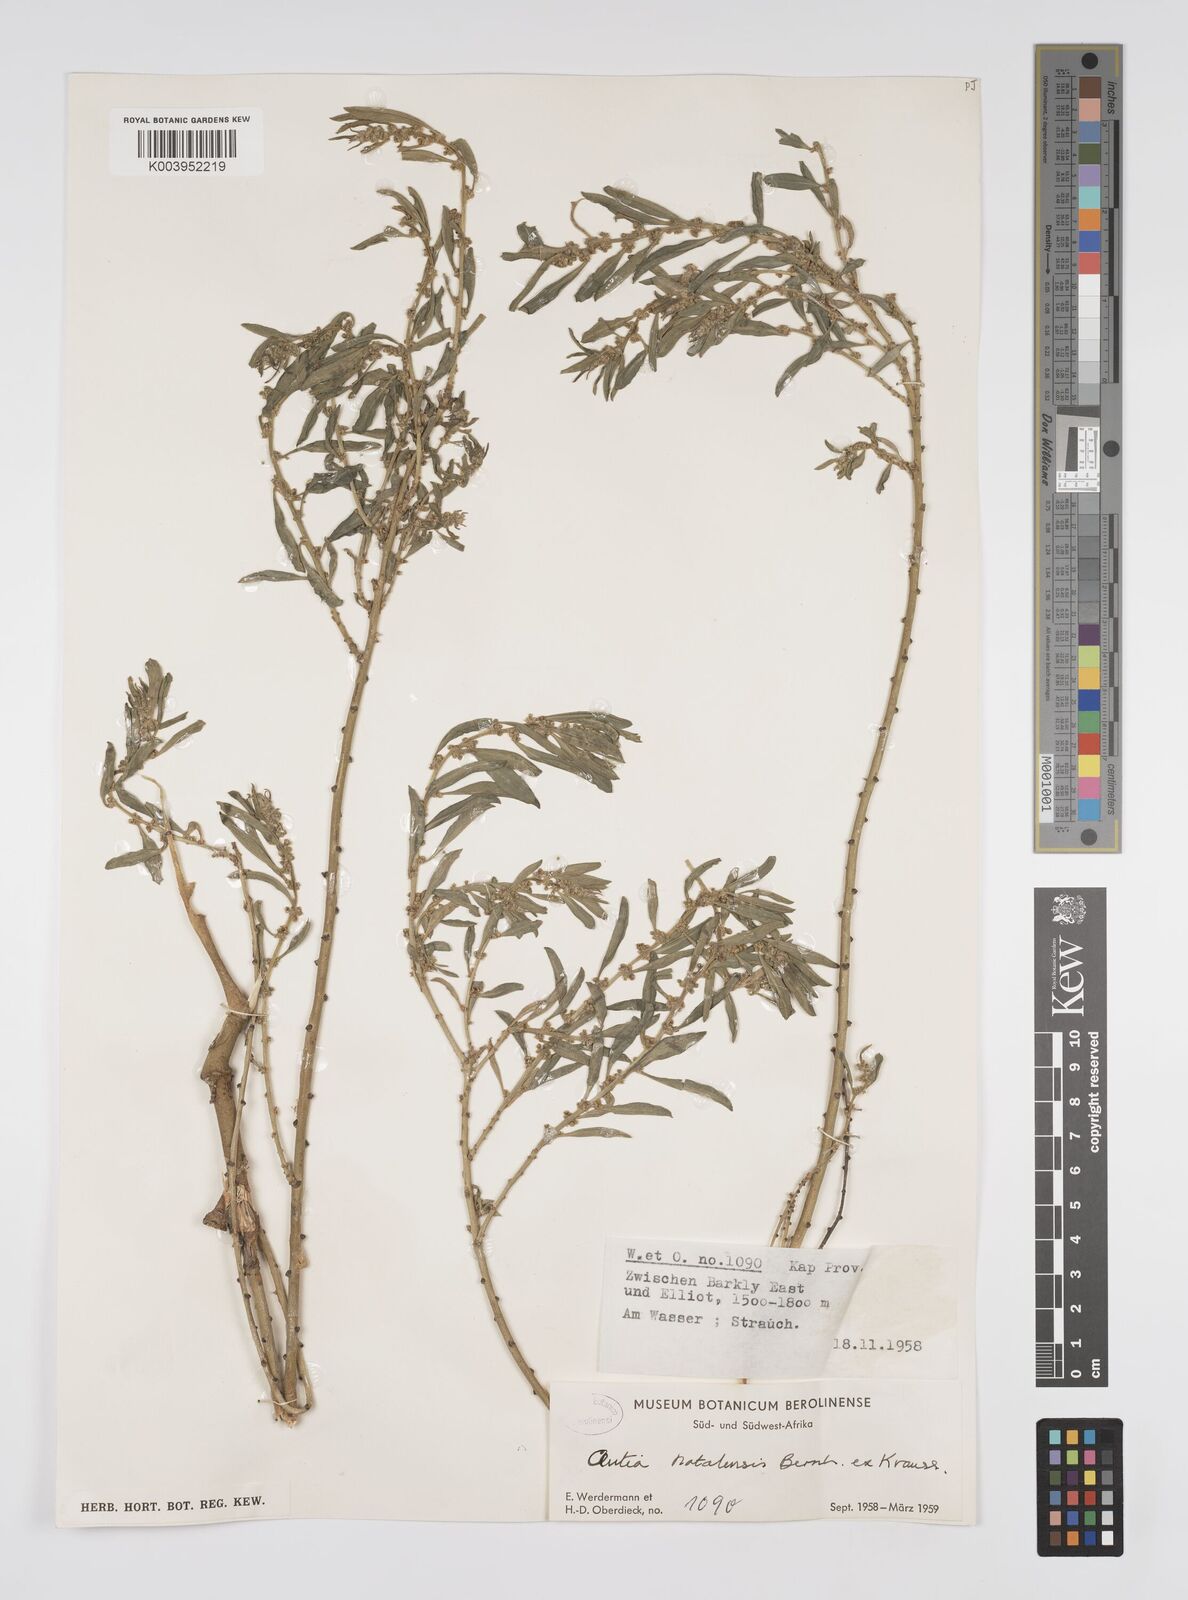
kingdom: Plantae
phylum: Tracheophyta
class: Magnoliopsida
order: Malpighiales
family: Peraceae
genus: Clutia
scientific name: Clutia natalensis
